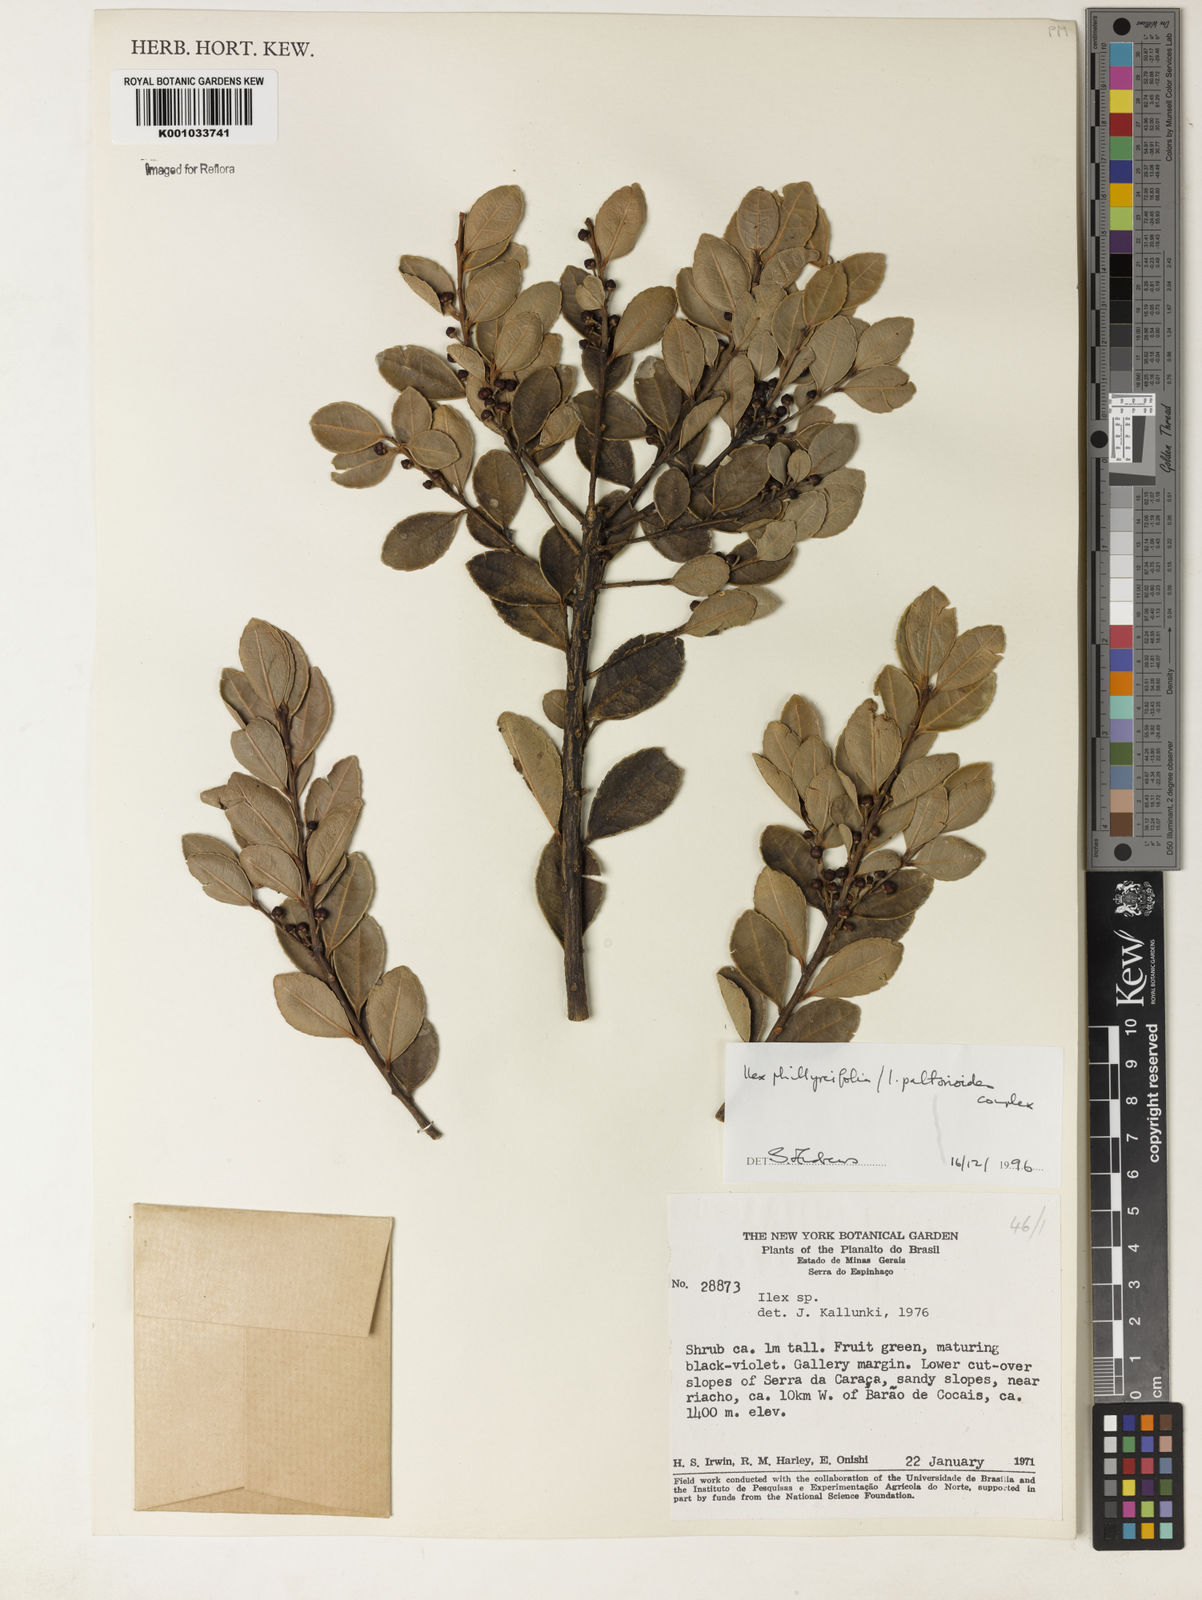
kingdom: Plantae
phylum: Tracheophyta
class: Magnoliopsida
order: Aquifoliales
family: Aquifoliaceae
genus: Ilex
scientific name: Ilex
